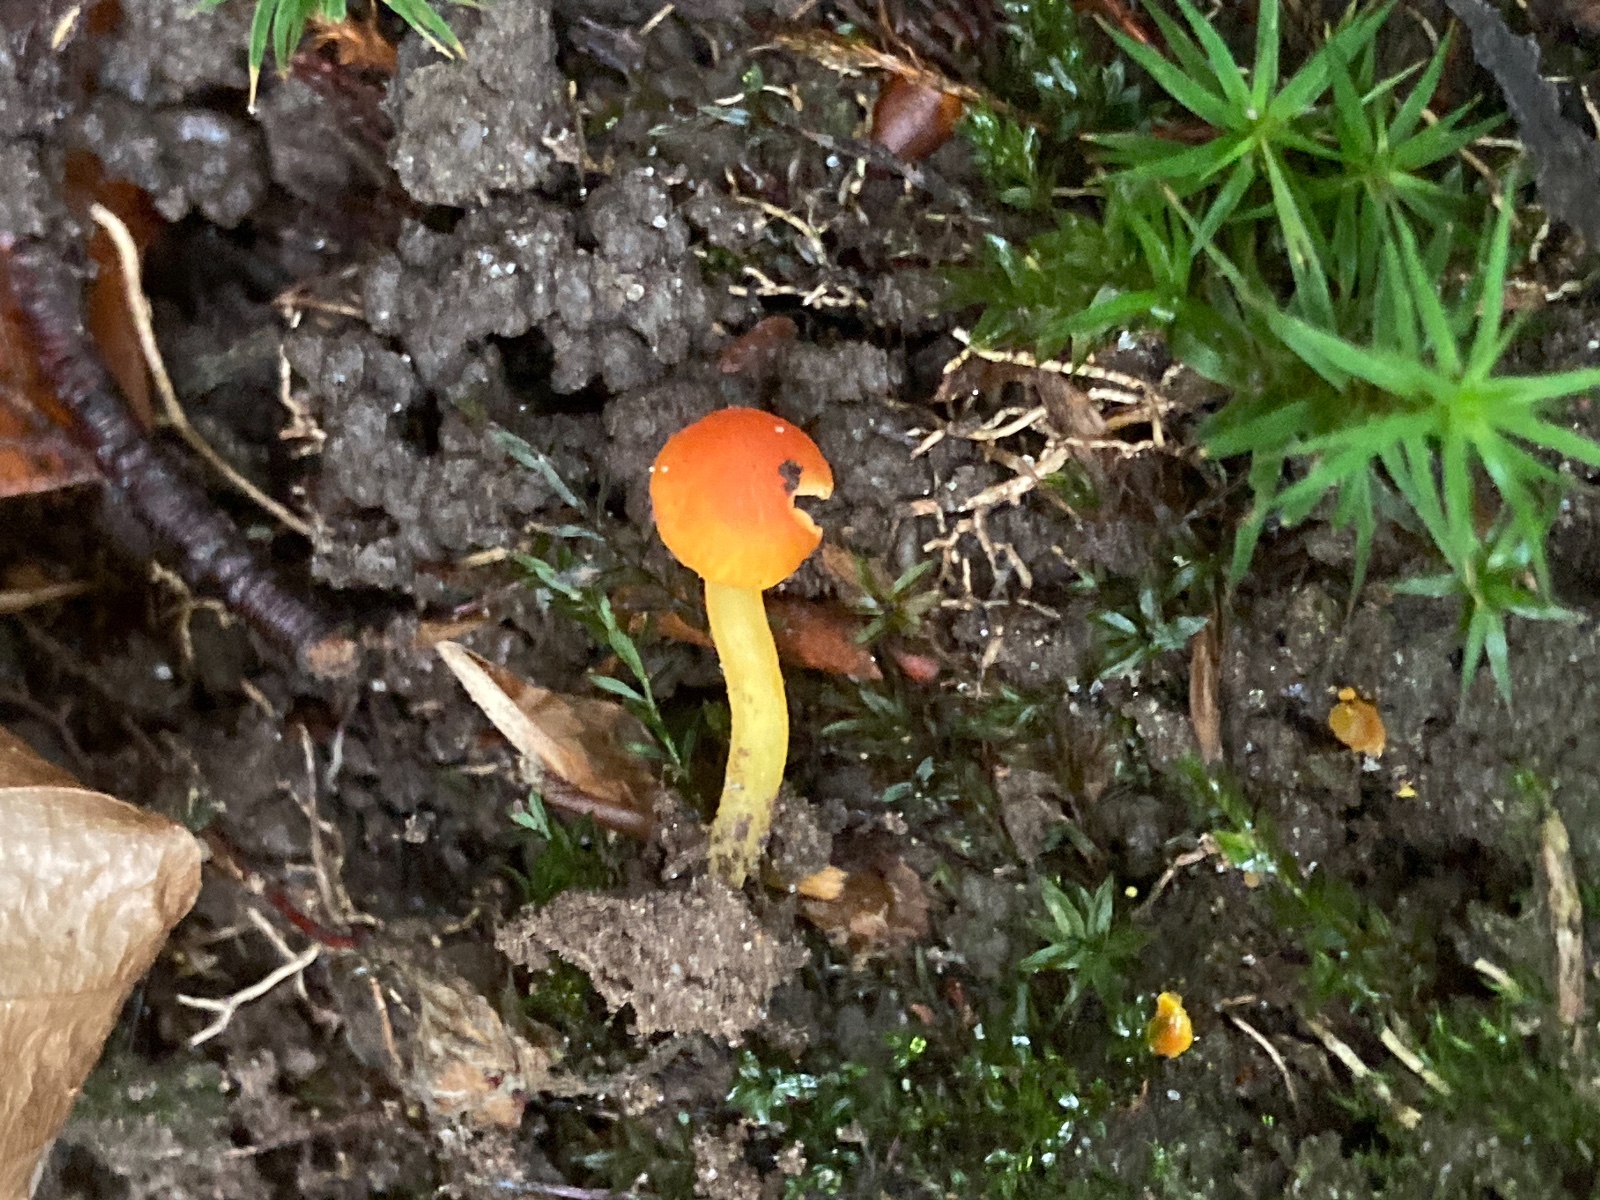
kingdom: Fungi
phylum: Basidiomycota
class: Agaricomycetes
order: Agaricales
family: Hygrophoraceae
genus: Hygrocybe
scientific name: Hygrocybe insipida
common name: liden vokshat
